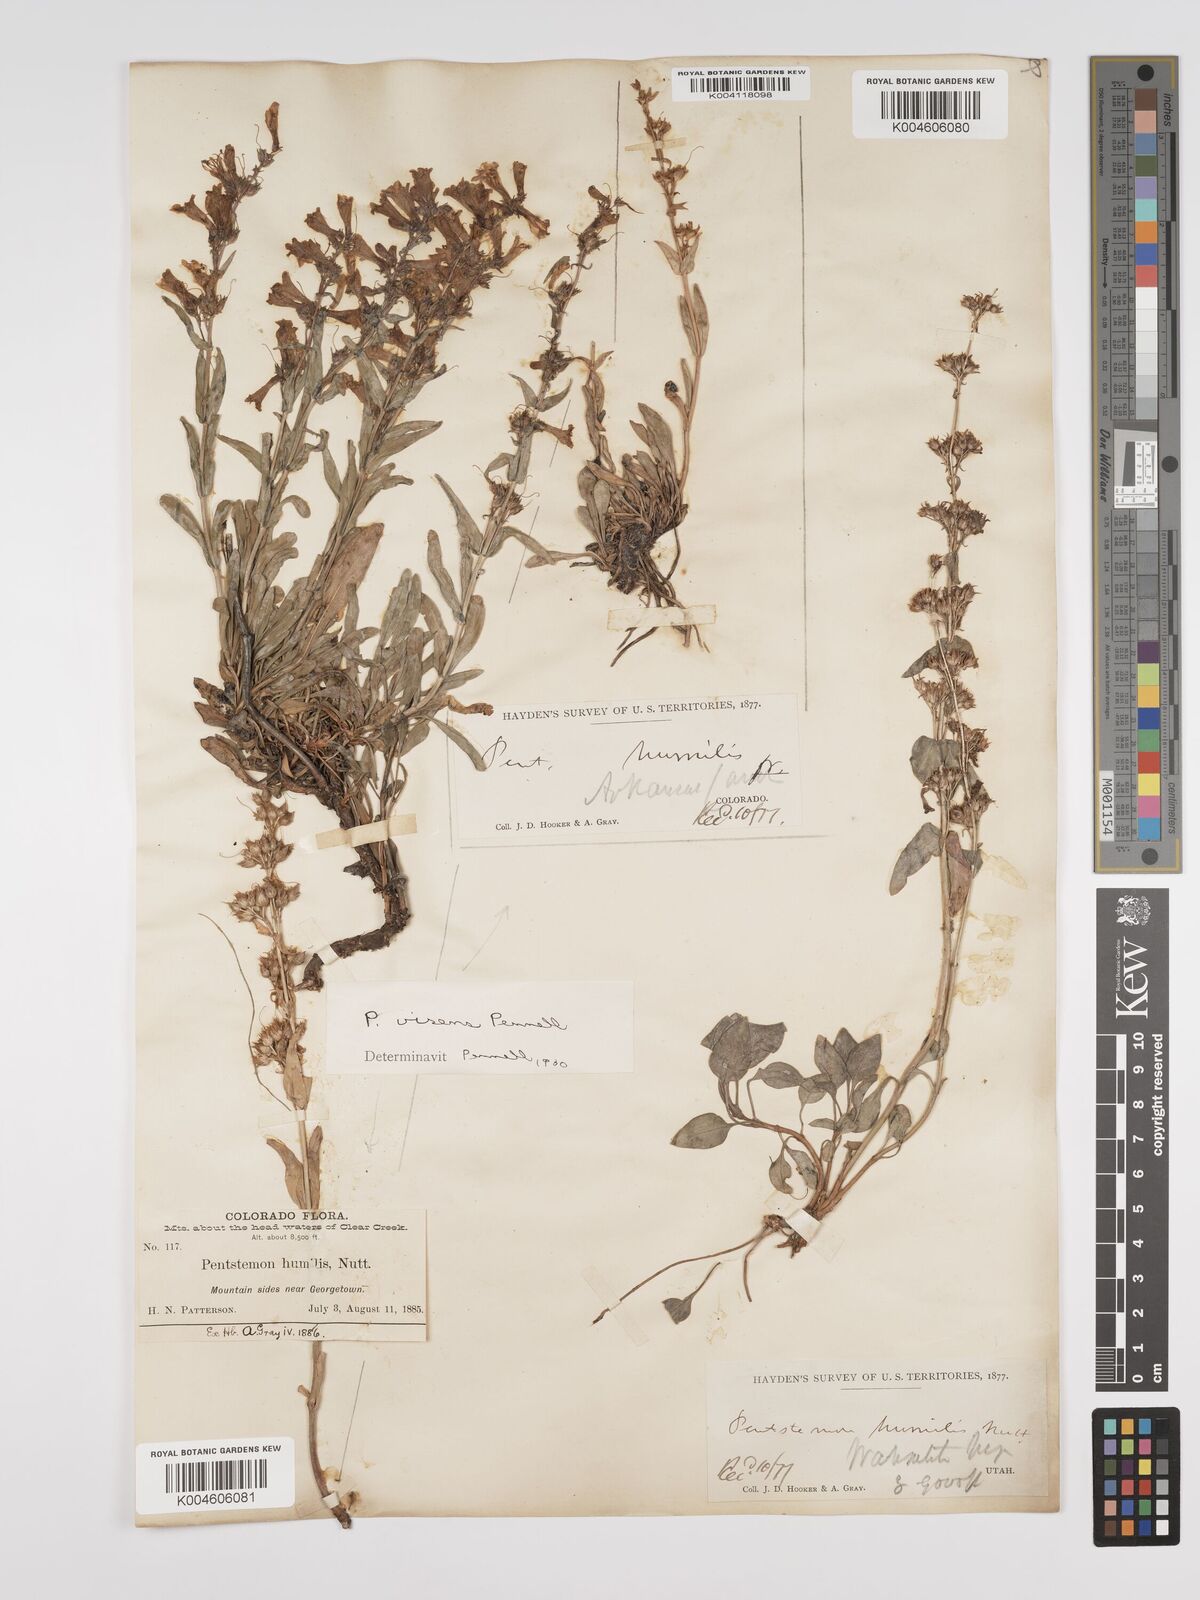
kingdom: Plantae
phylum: Tracheophyta
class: Magnoliopsida
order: Lamiales
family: Plantaginaceae
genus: Penstemon
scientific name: Penstemon virens
